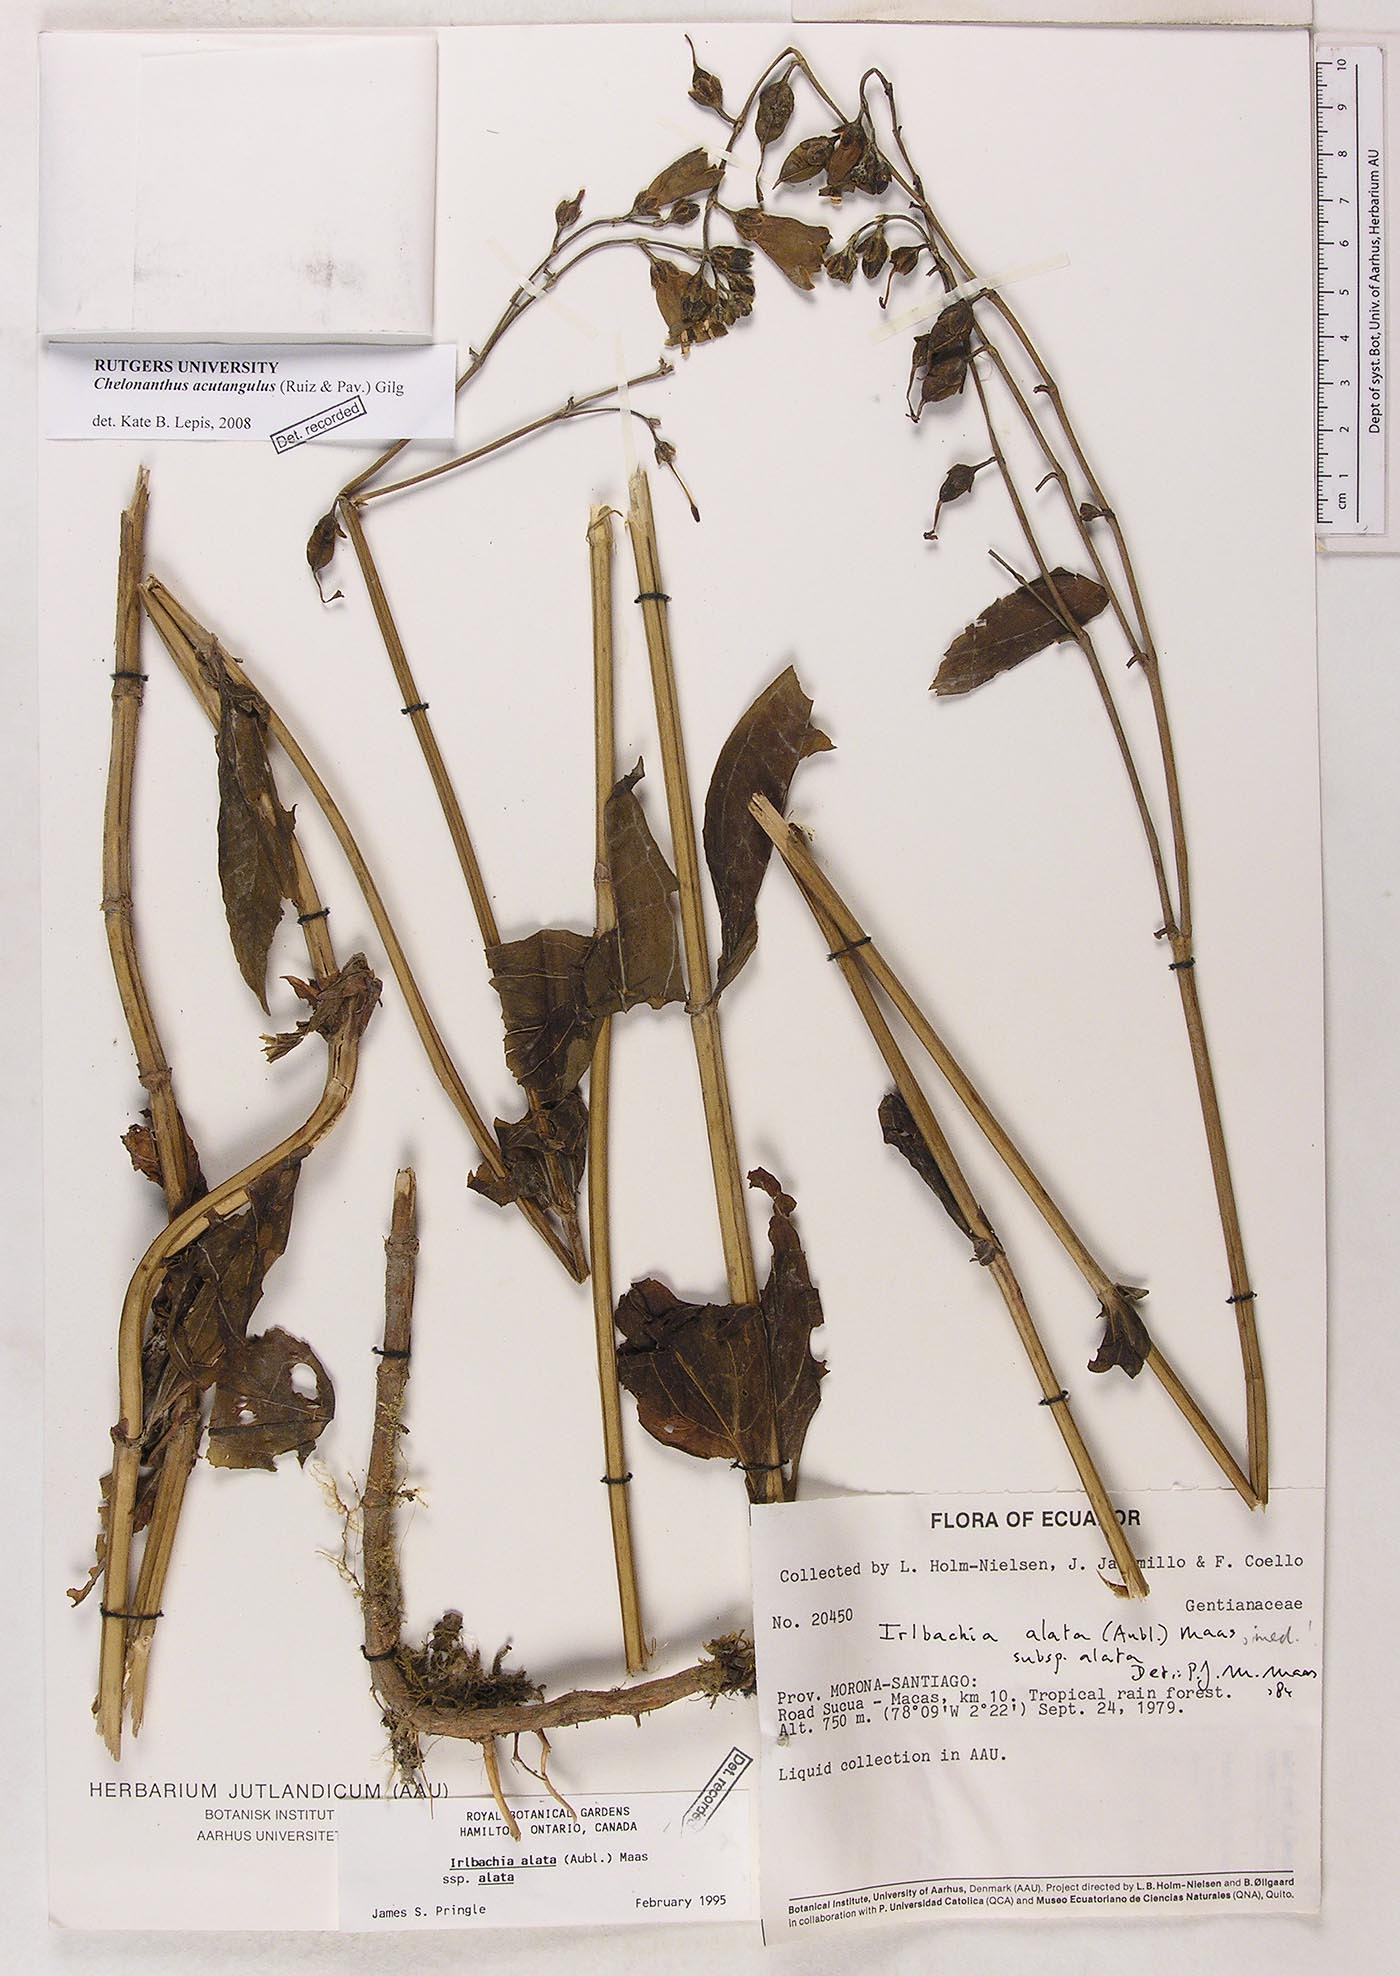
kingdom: Plantae
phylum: Tracheophyta
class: Magnoliopsida
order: Gentianales
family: Gentianaceae
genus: Chelonanthus
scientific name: Chelonanthus alatus
